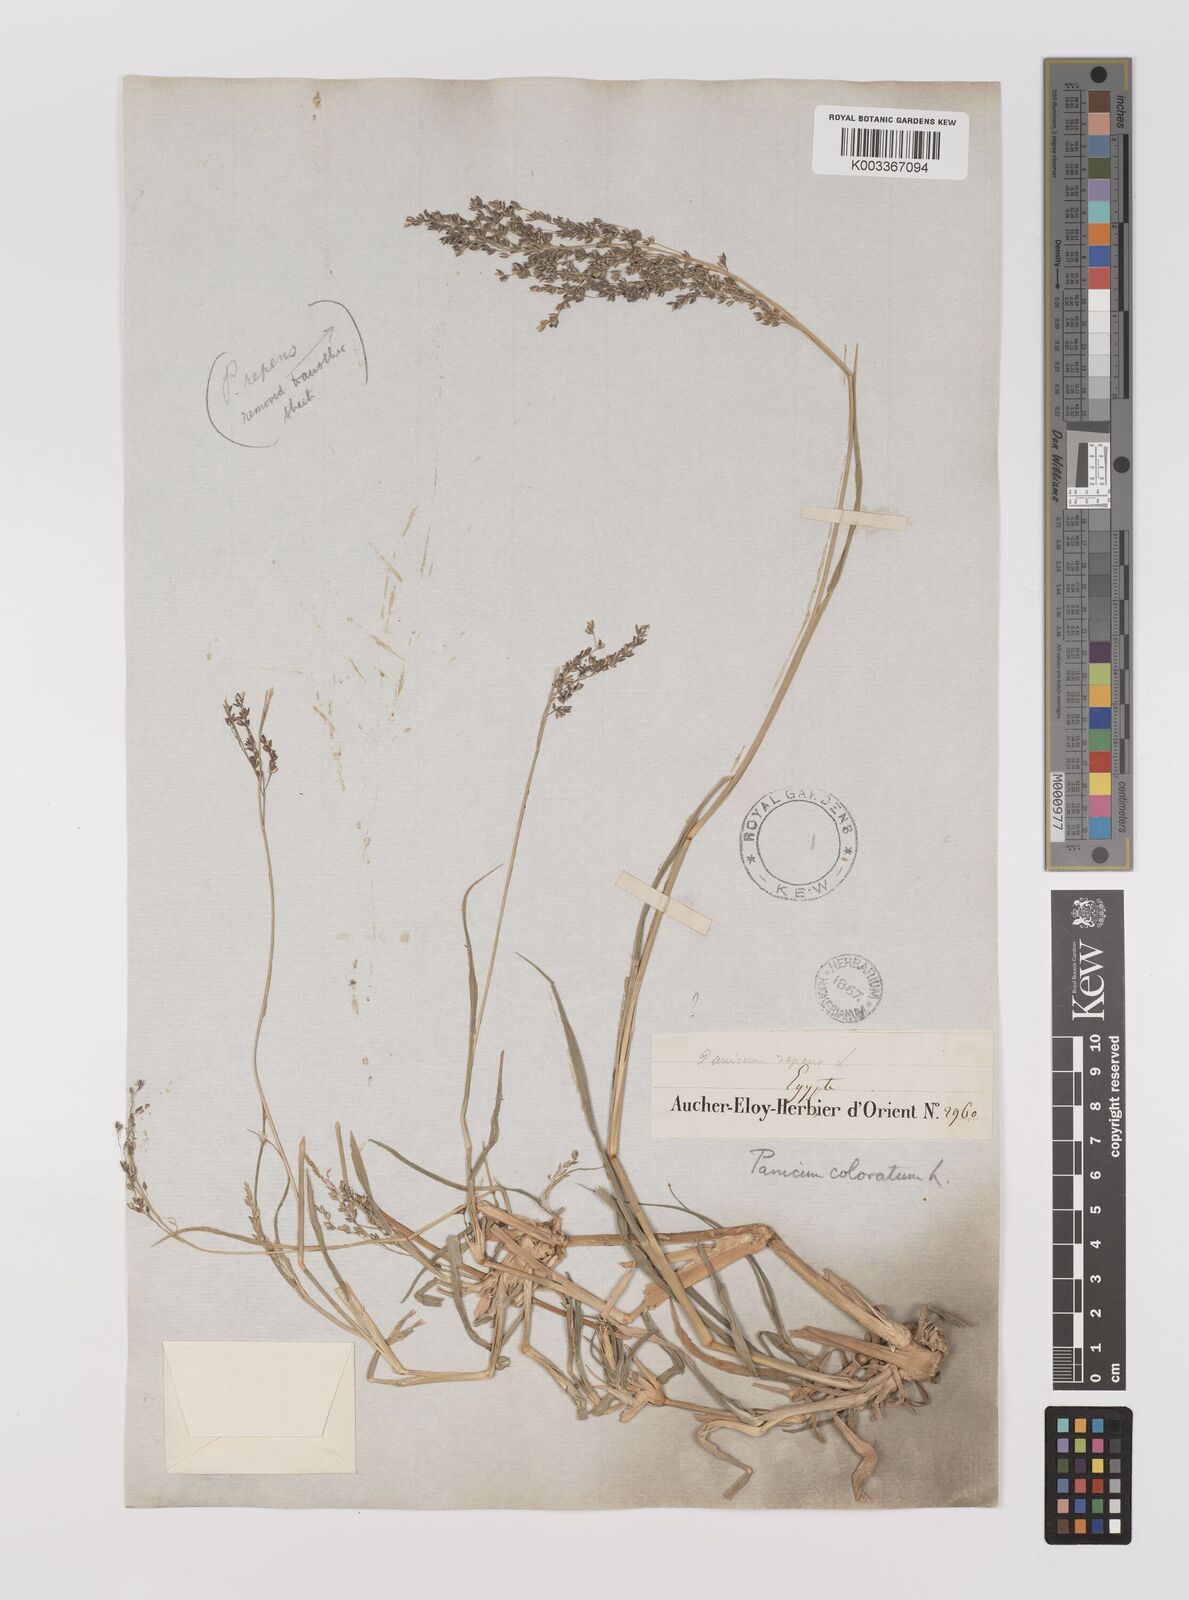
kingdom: Plantae
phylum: Tracheophyta
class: Liliopsida
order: Poales
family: Poaceae
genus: Panicum
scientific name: Panicum coloratum
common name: Kleingrass
